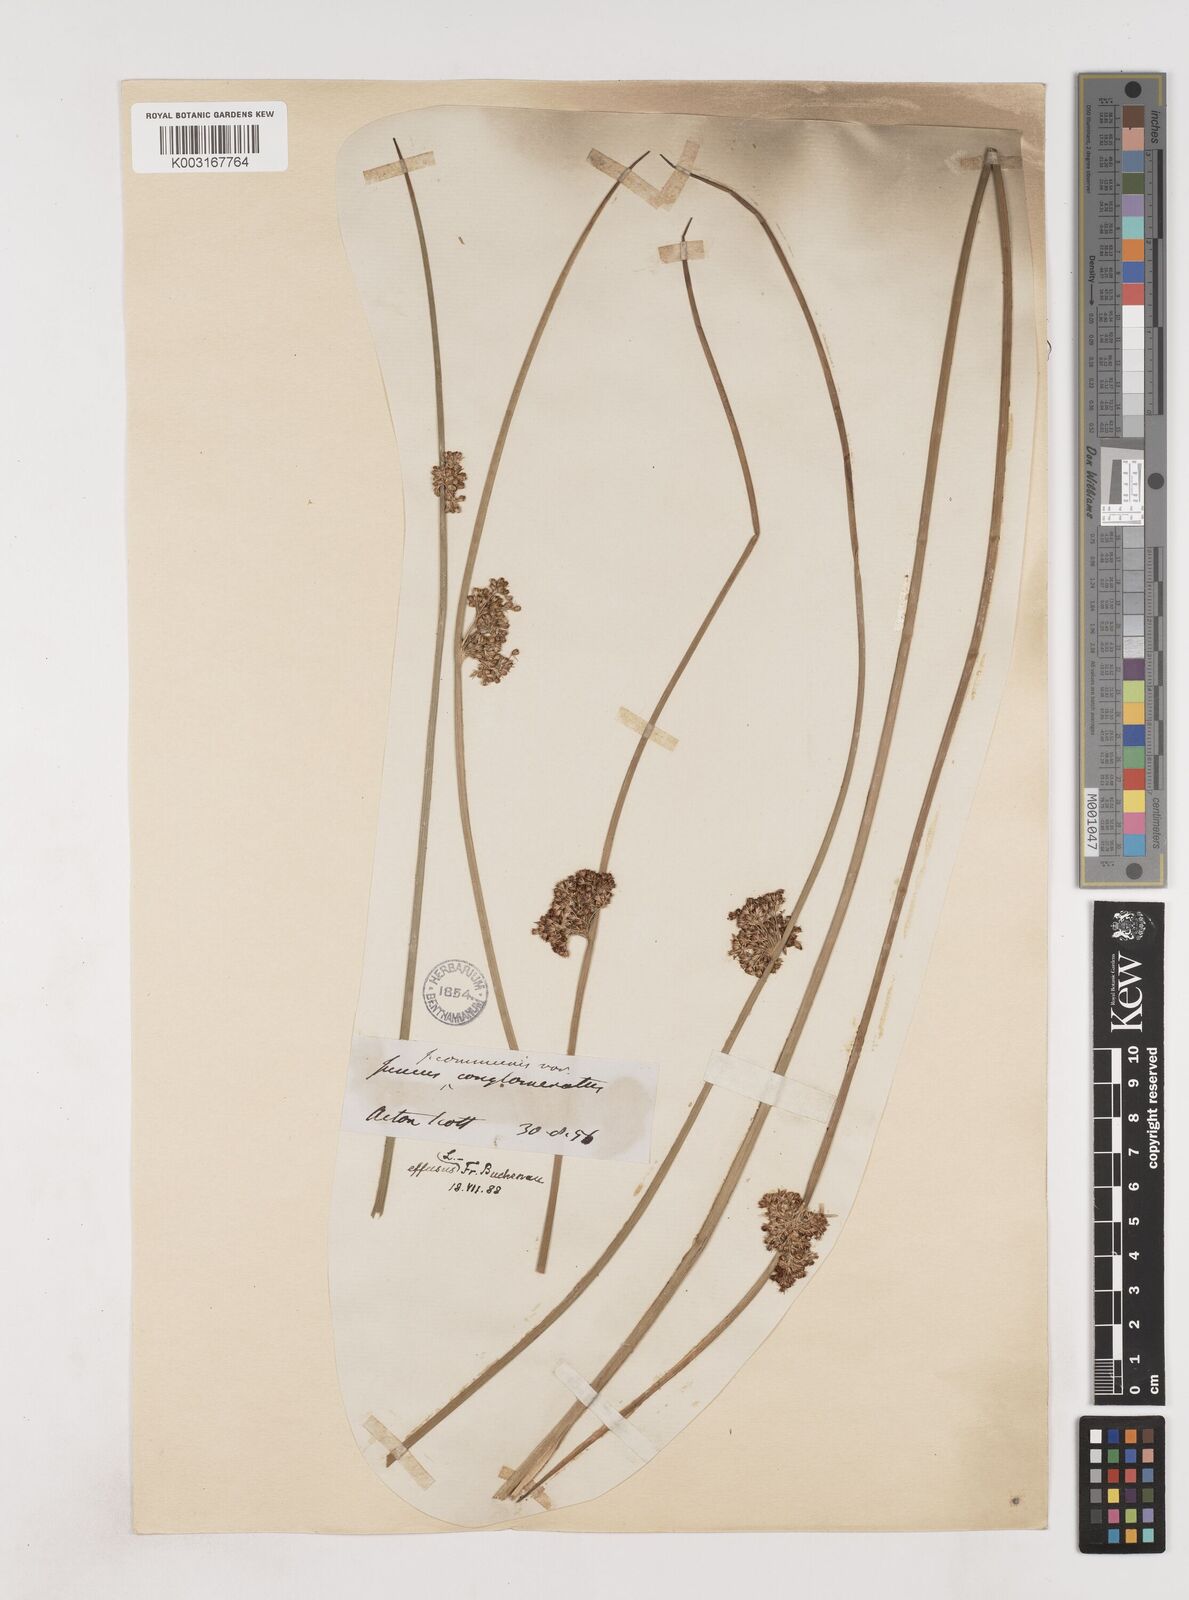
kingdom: Plantae
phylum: Tracheophyta
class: Liliopsida
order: Poales
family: Juncaceae
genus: Juncus
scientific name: Juncus effusus
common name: Soft rush
